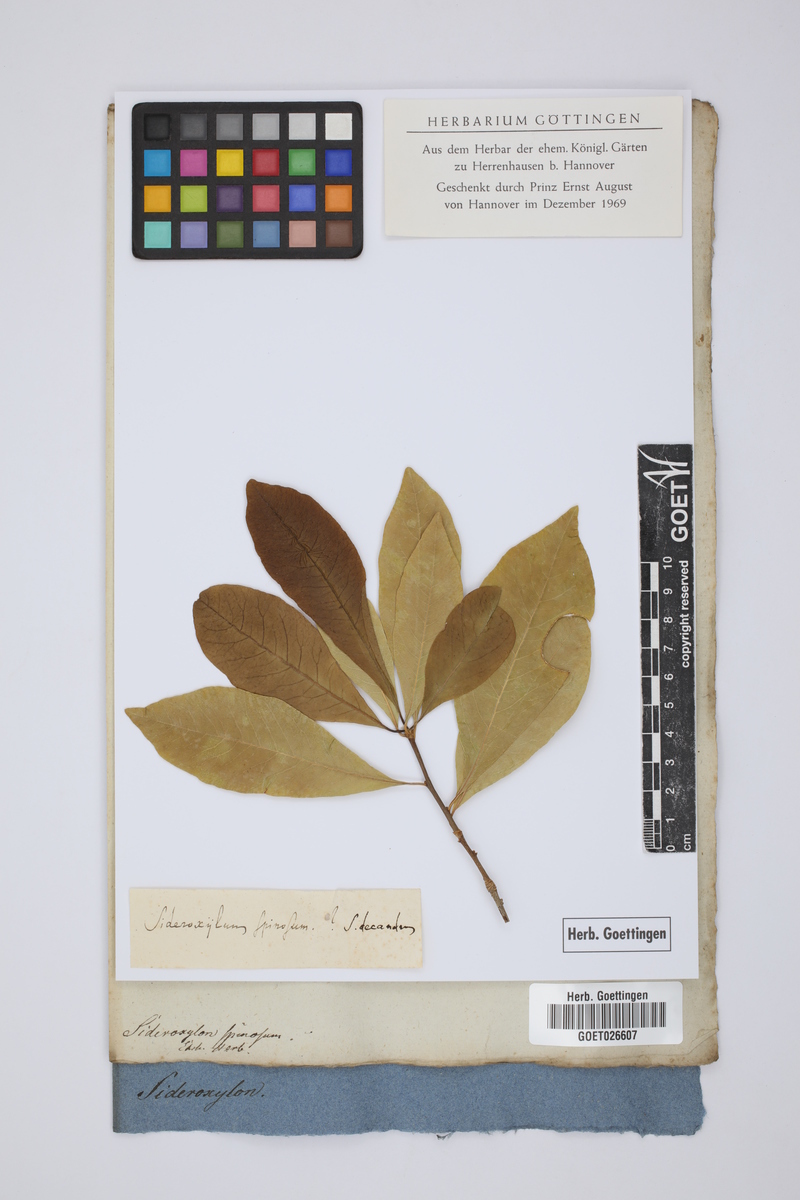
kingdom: Plantae
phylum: Tracheophyta
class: Magnoliopsida
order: Ericales
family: Sapotaceae
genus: Sideroxylon
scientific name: Sideroxylon spinosum
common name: Argan
